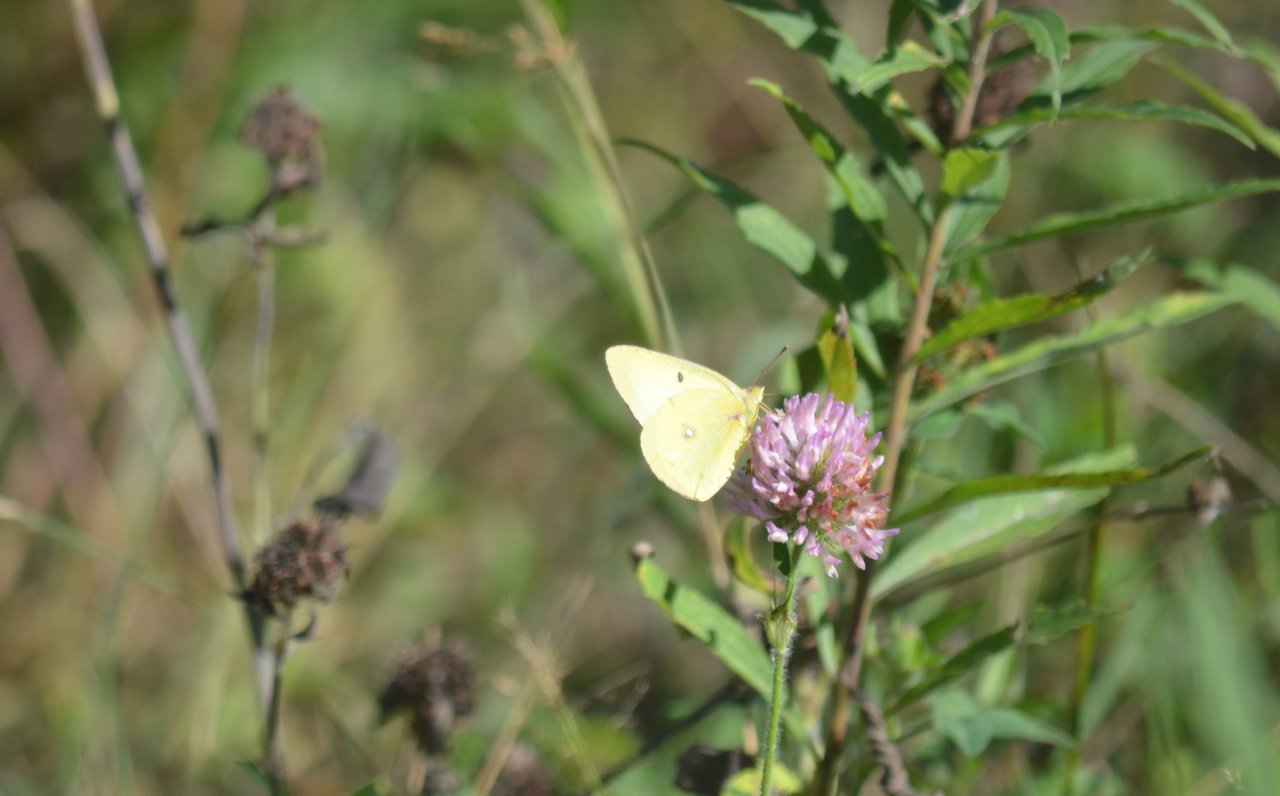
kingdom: Animalia
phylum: Arthropoda
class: Insecta
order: Lepidoptera
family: Pieridae
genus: Colias
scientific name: Colias philodice
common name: Clouded Sulphur
